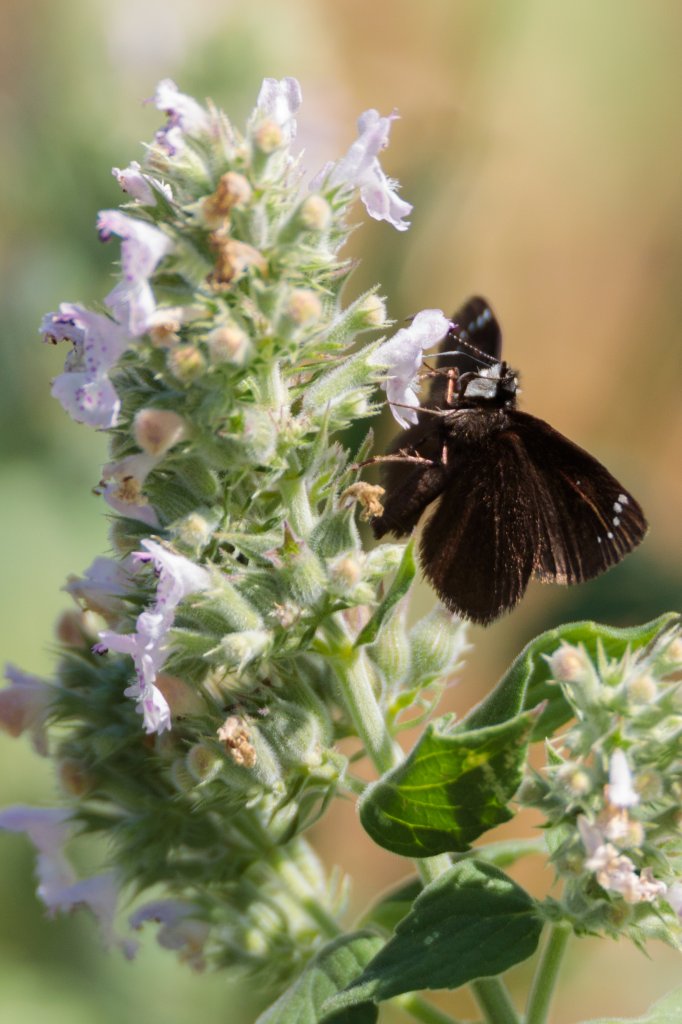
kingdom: Animalia
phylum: Arthropoda
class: Insecta
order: Lepidoptera
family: Hesperiidae
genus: Pholisora
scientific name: Pholisora catullus
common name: Common Sootywing
